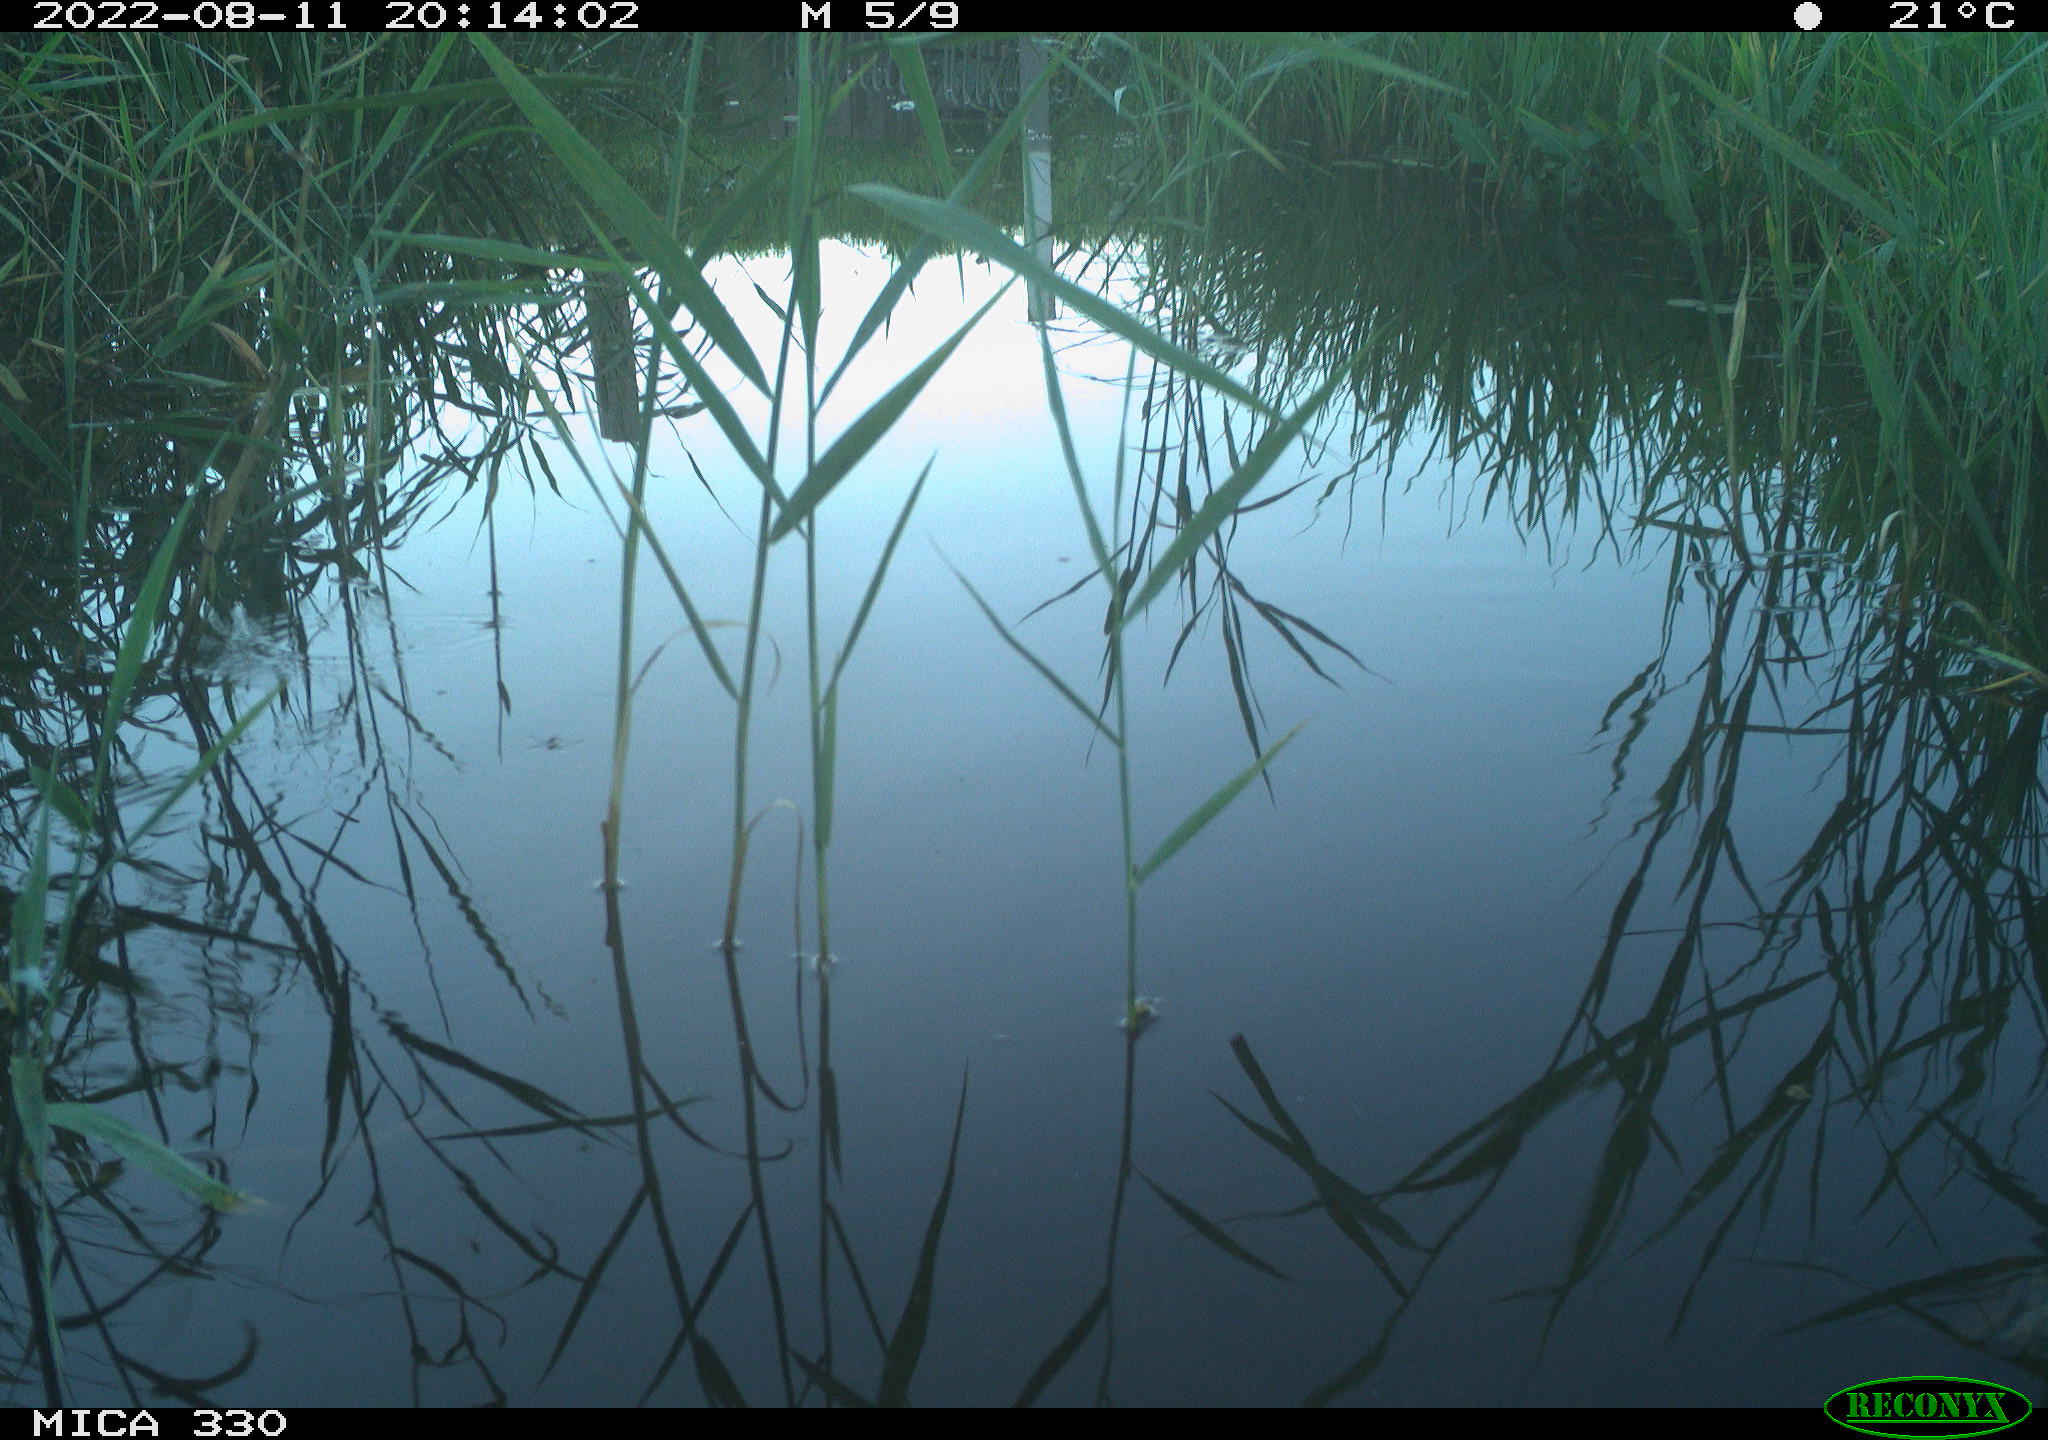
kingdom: Animalia
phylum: Chordata
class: Aves
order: Gruiformes
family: Rallidae
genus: Gallinula
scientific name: Gallinula chloropus
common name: Common moorhen
